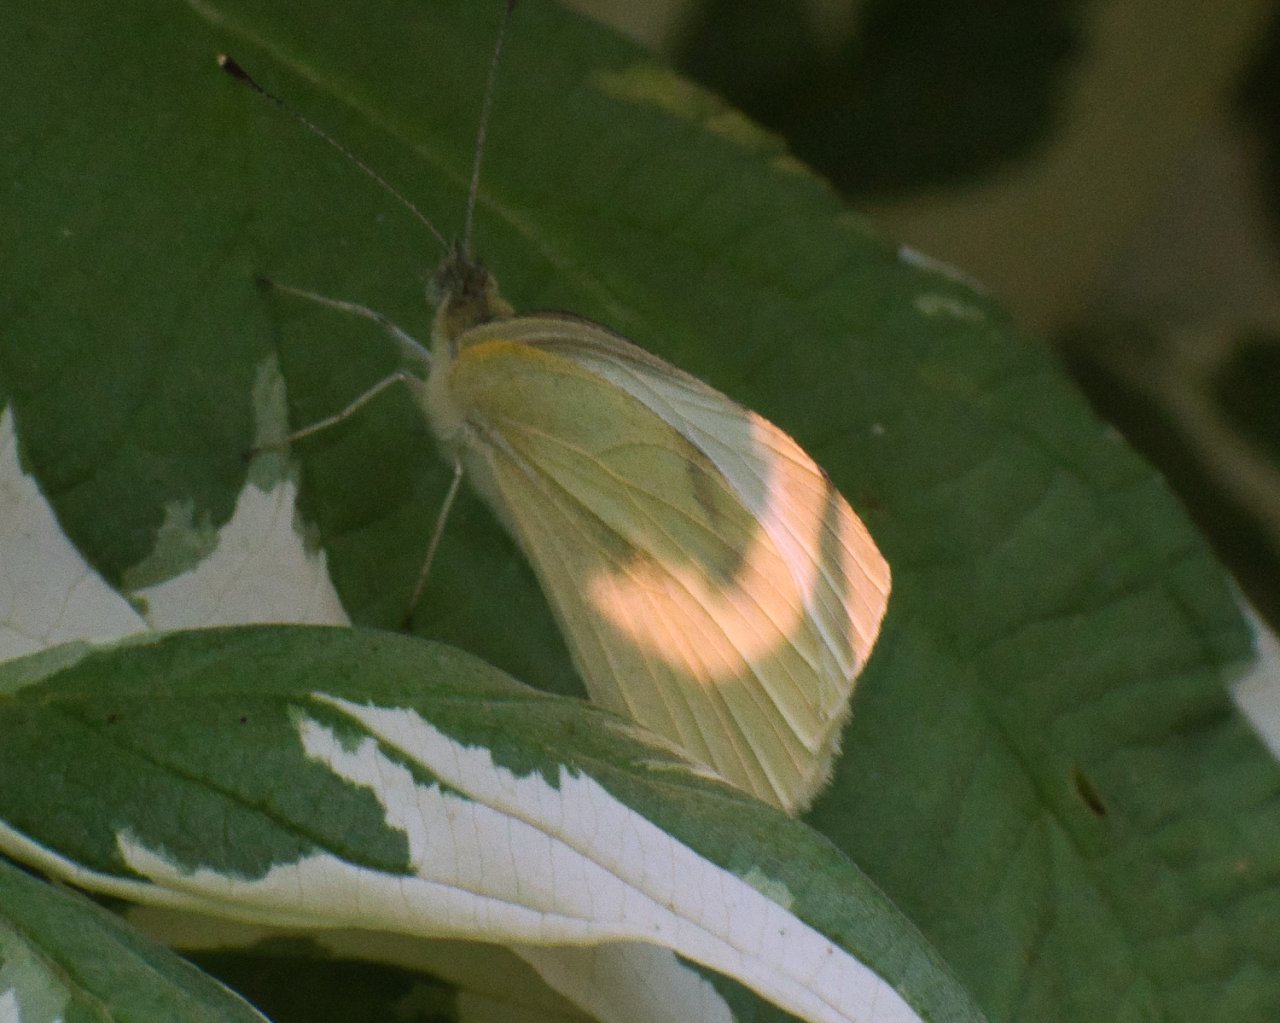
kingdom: Animalia
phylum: Arthropoda
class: Insecta
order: Lepidoptera
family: Pieridae
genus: Pieris
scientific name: Pieris rapae
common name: Cabbage White
